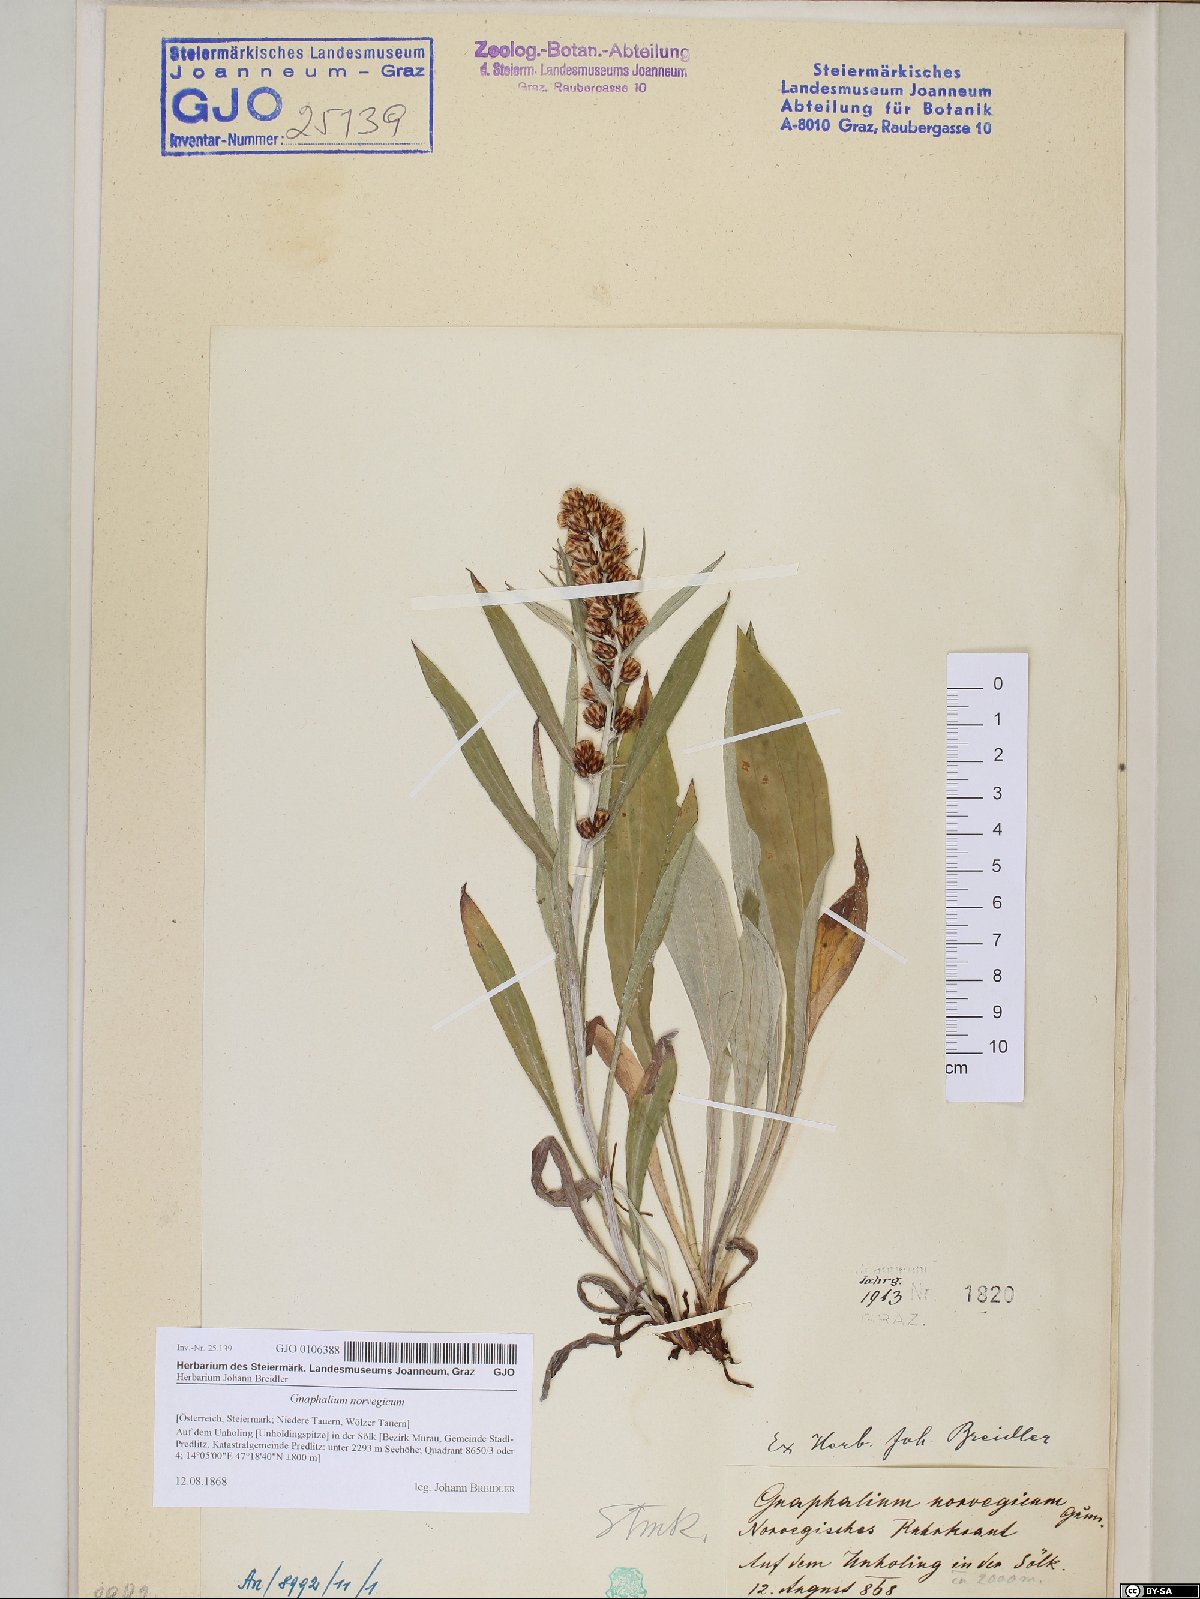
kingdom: Plantae
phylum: Tracheophyta
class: Magnoliopsida
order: Asterales
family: Asteraceae
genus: Omalotheca
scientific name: Omalotheca norvegica
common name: Norwegian arctic-cudweed
